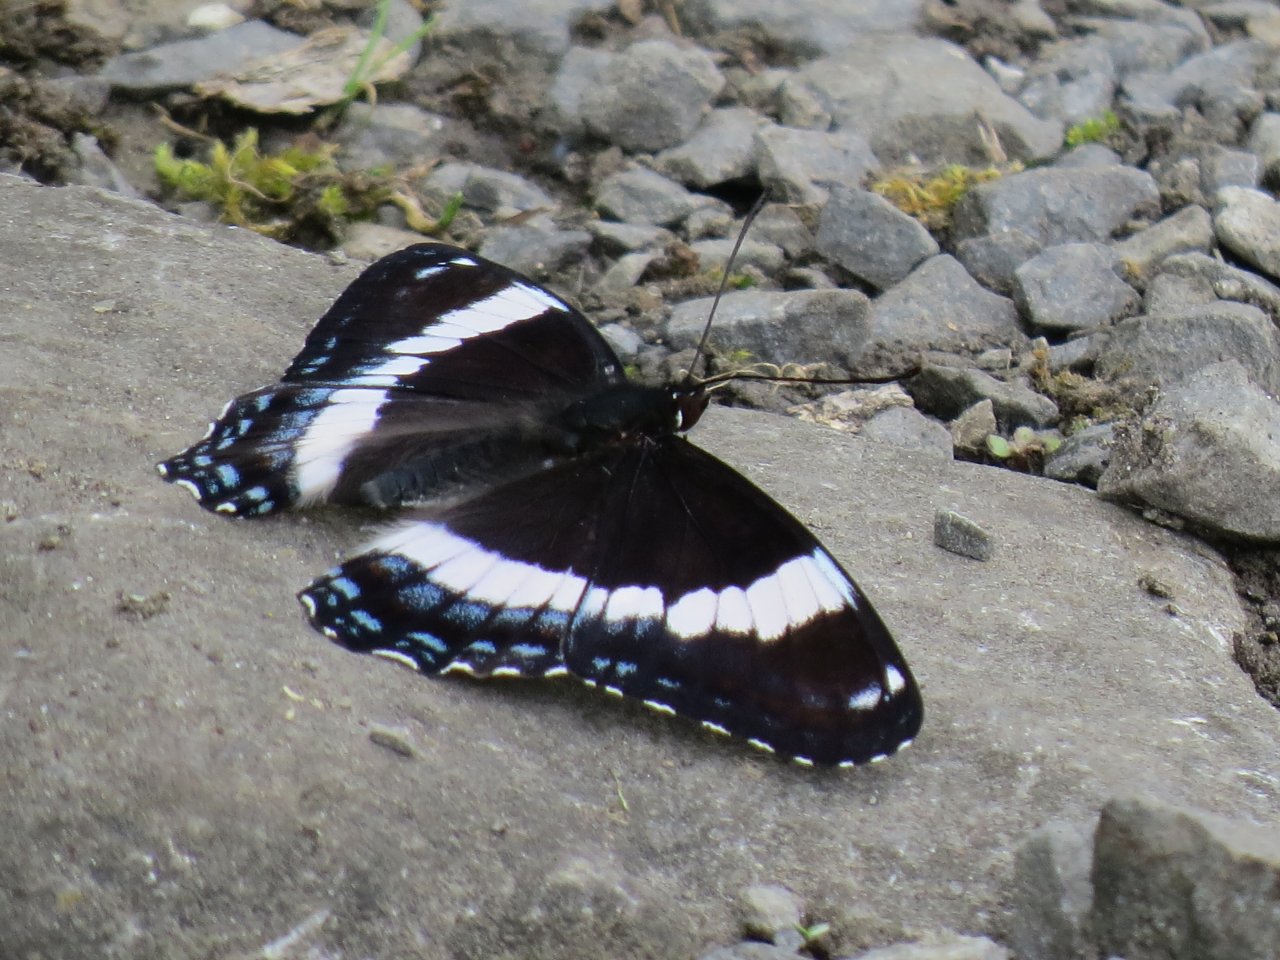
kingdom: Animalia
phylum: Arthropoda
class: Insecta
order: Lepidoptera
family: Nymphalidae
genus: Limenitis
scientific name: Limenitis arthemis
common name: Red-spotted Admiral
